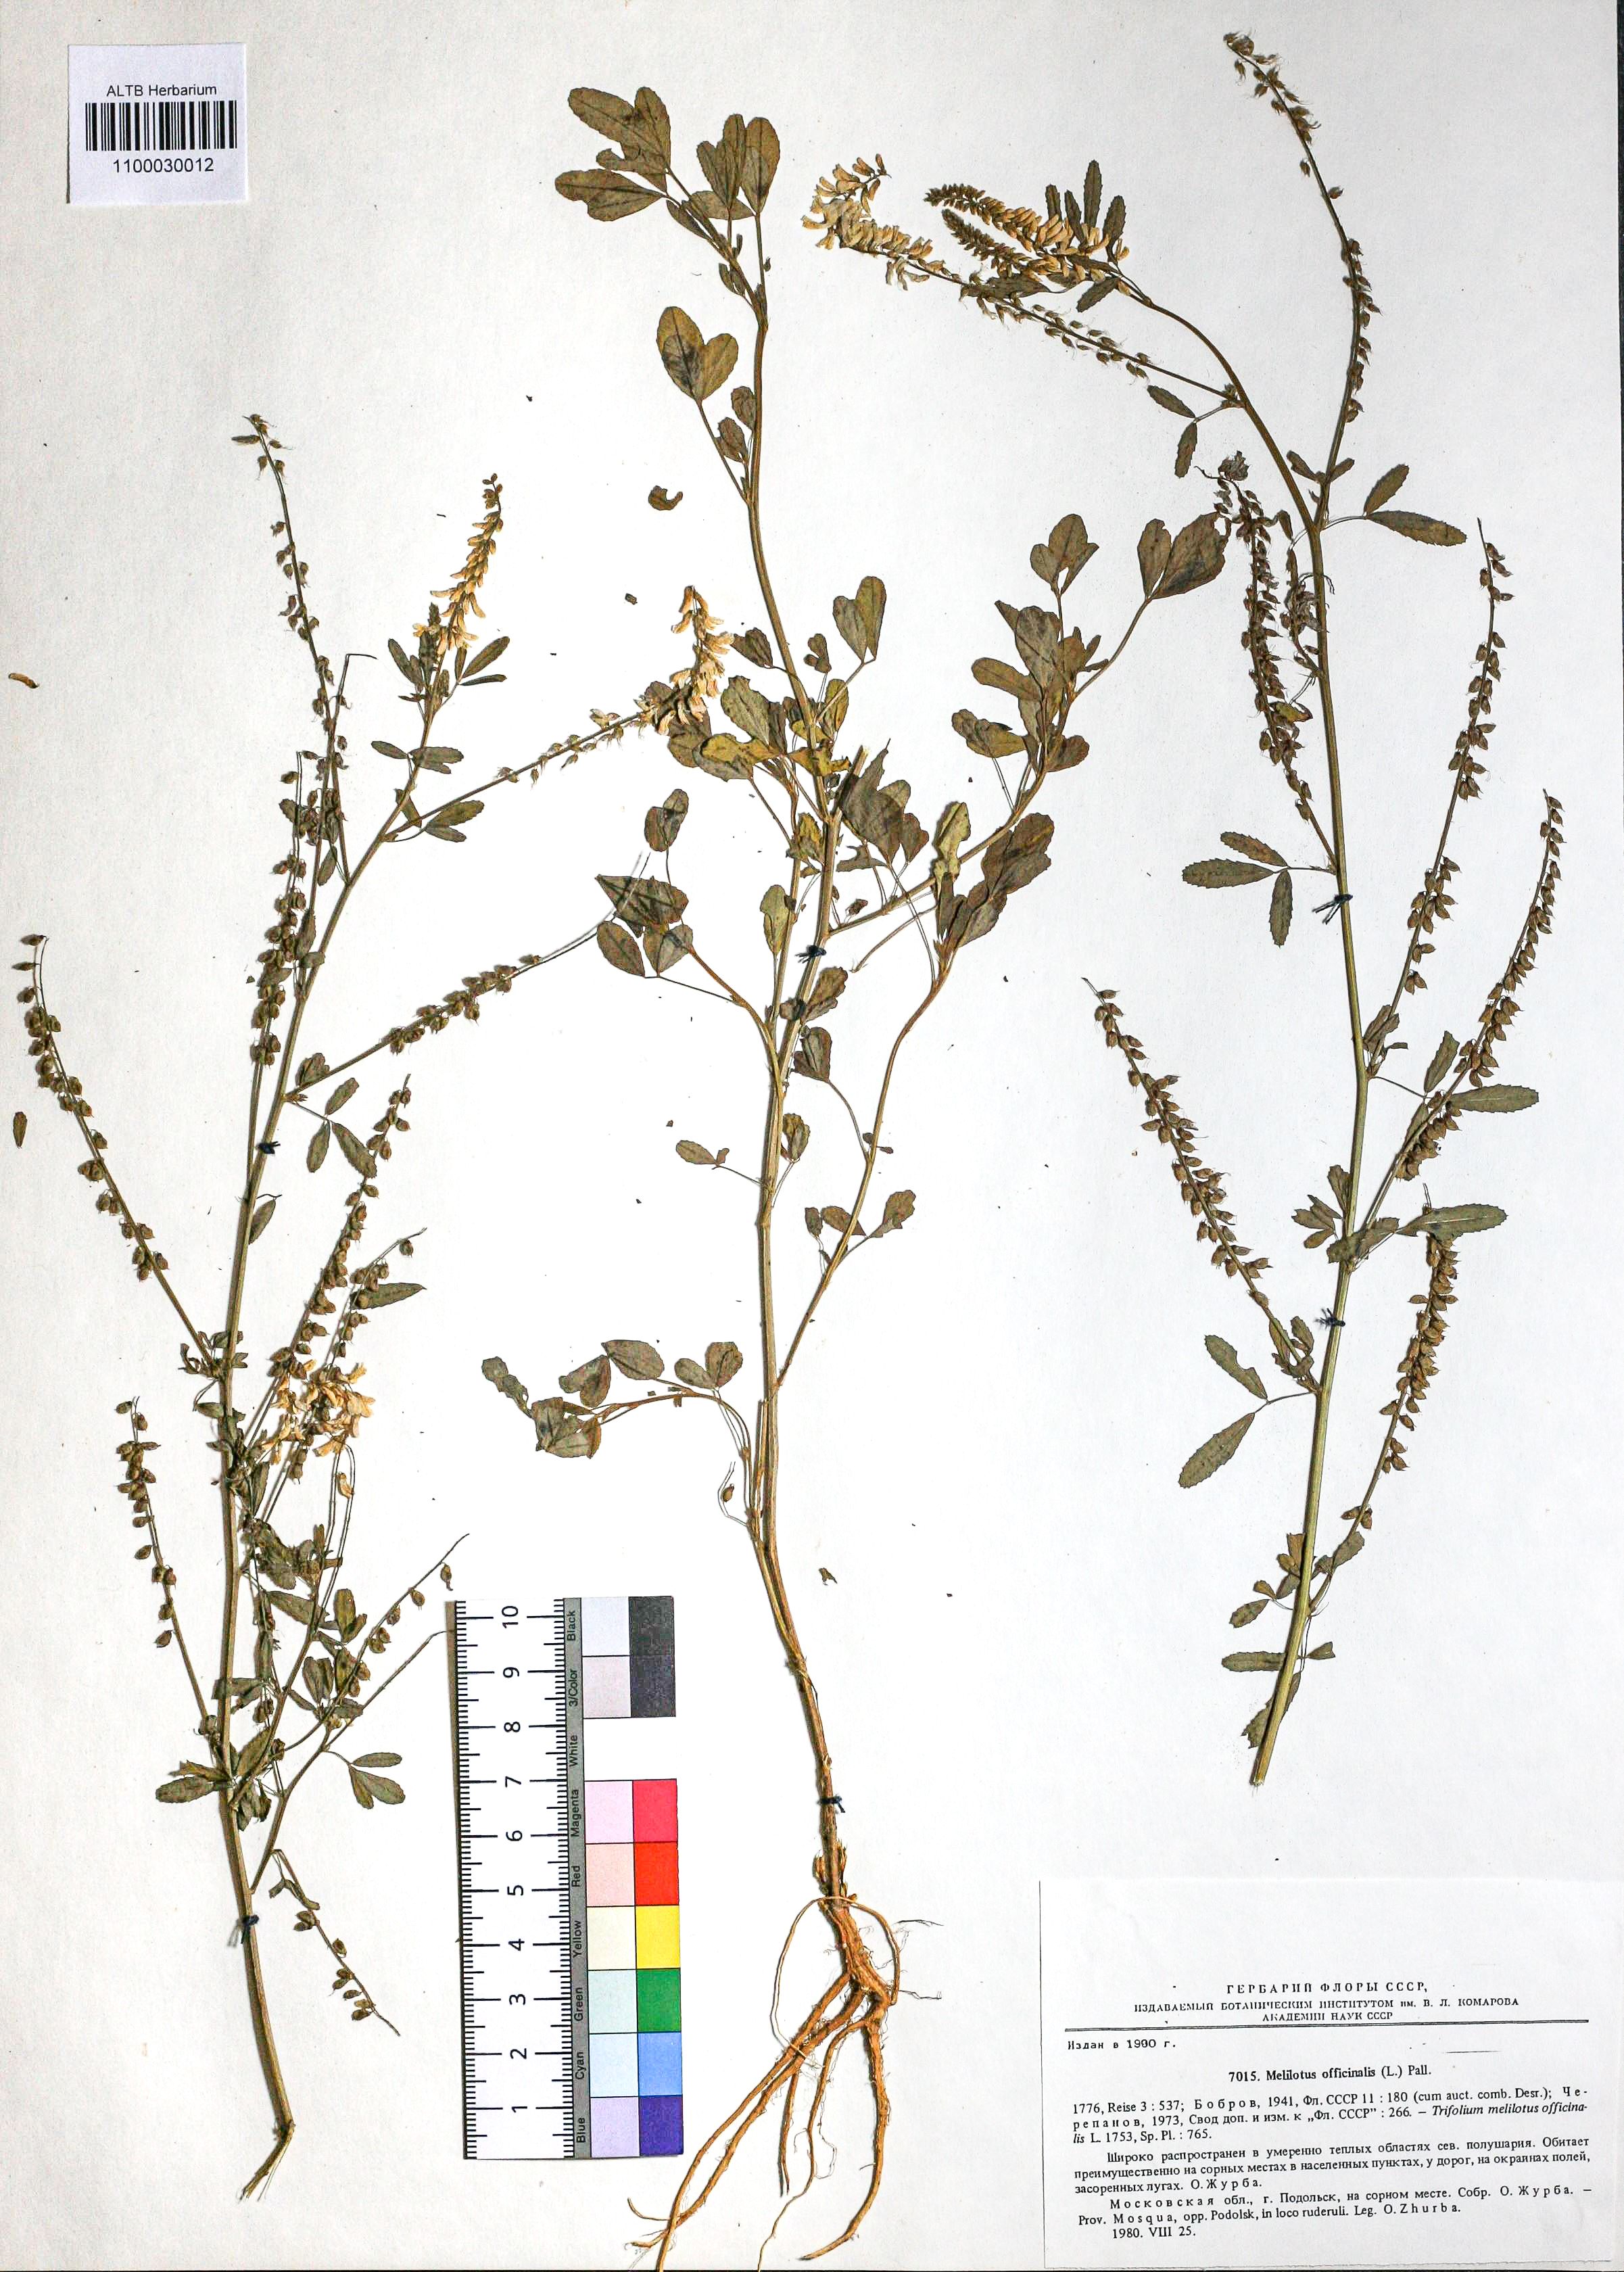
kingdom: Plantae
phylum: Tracheophyta
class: Magnoliopsida
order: Fabales
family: Fabaceae
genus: Melilotus
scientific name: Melilotus officinalis
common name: Sweetclover
